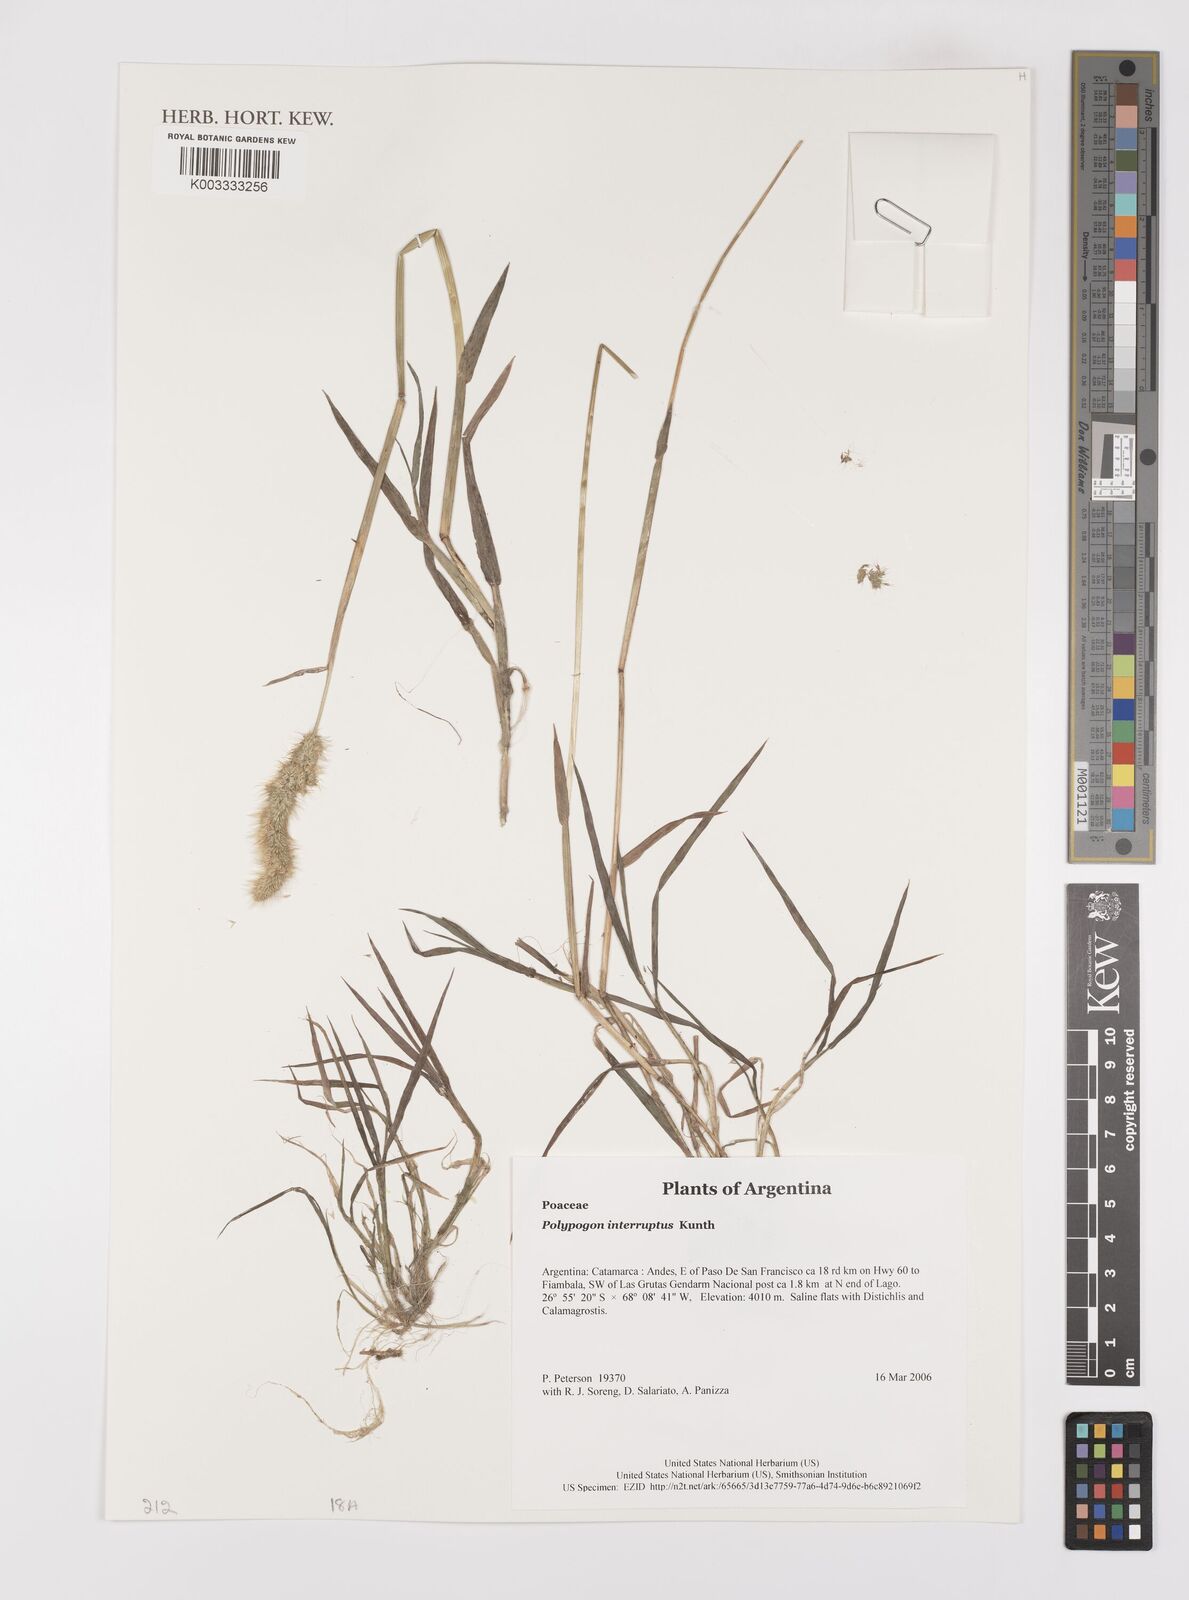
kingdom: Plantae
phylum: Tracheophyta
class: Liliopsida
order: Poales
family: Poaceae
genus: Polypogon
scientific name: Polypogon interruptus
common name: Ditch polypogon
